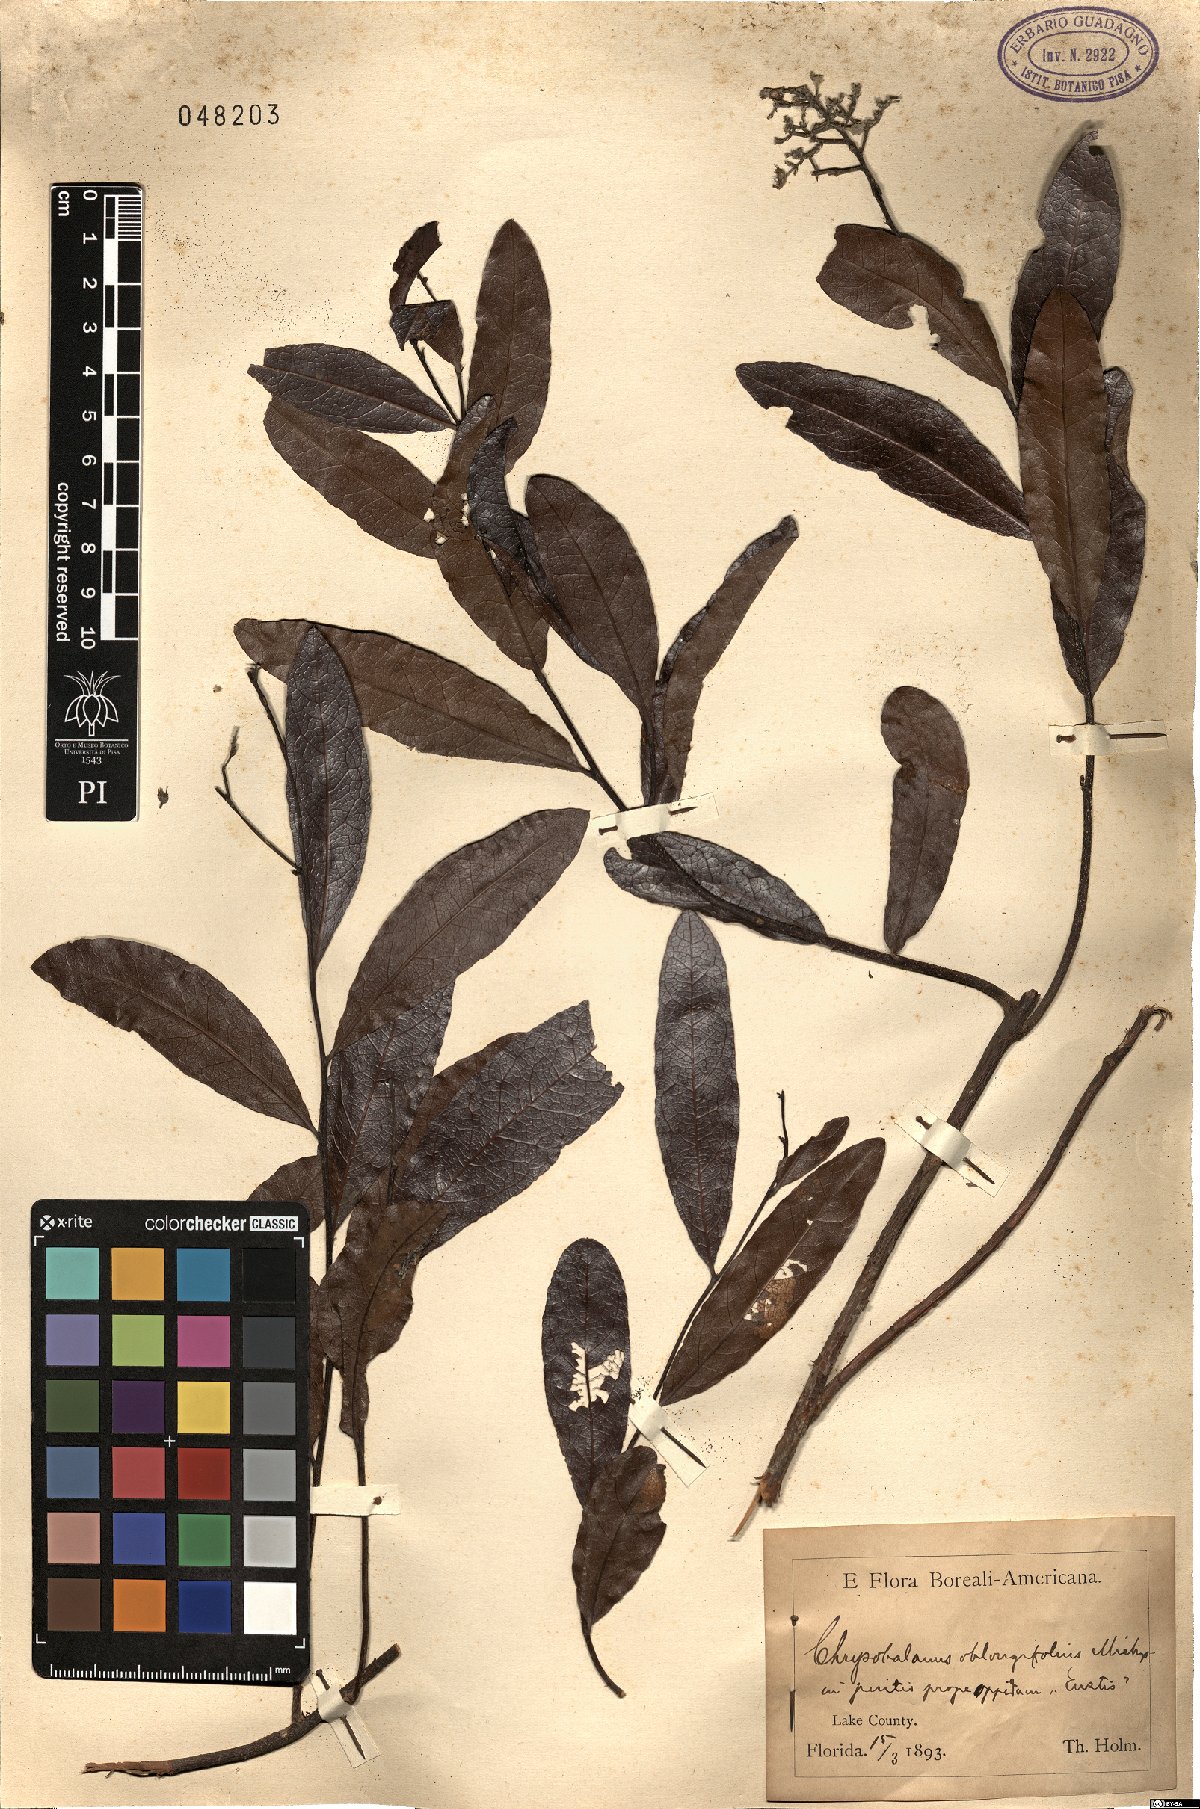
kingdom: Plantae
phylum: Tracheophyta
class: Magnoliopsida
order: Malpighiales
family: Chrysobalanaceae
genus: Geobalanus
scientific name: Geobalanus oblongifolius
